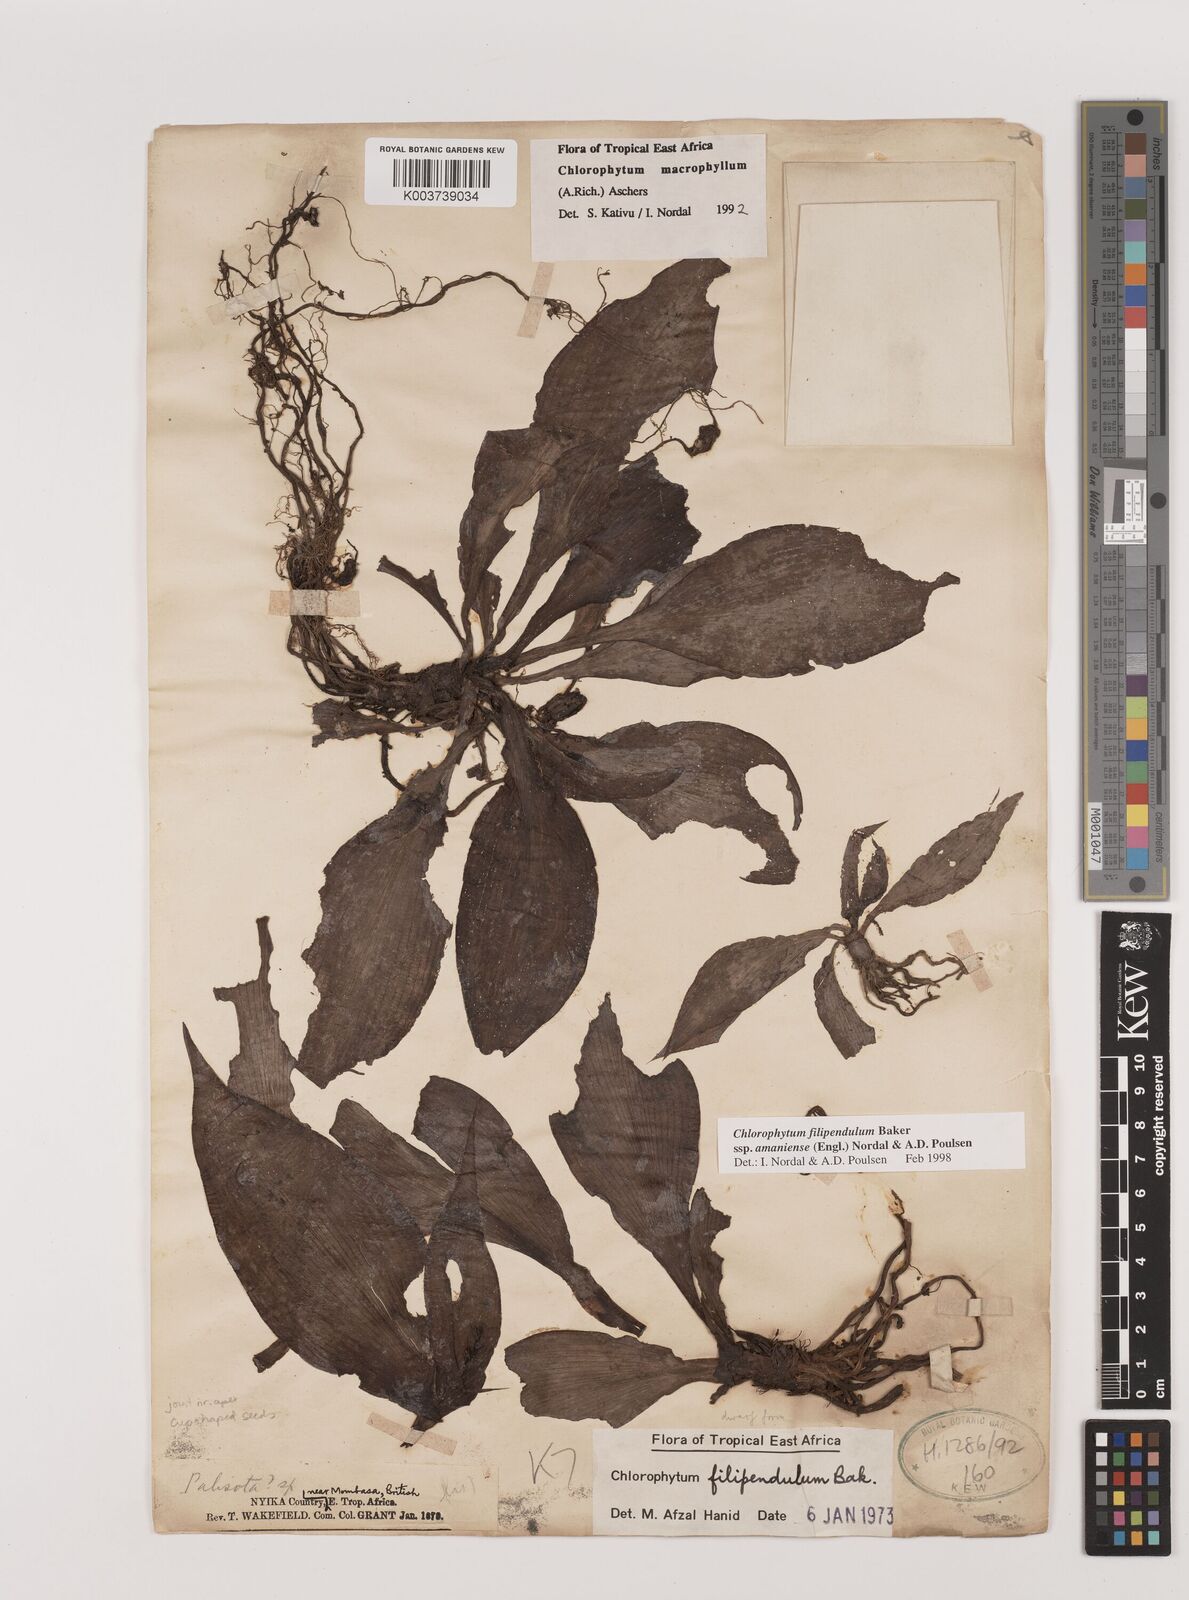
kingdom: Plantae
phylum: Tracheophyta
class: Liliopsida
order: Asparagales
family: Asparagaceae
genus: Chlorophytum
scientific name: Chlorophytum filipendulum
